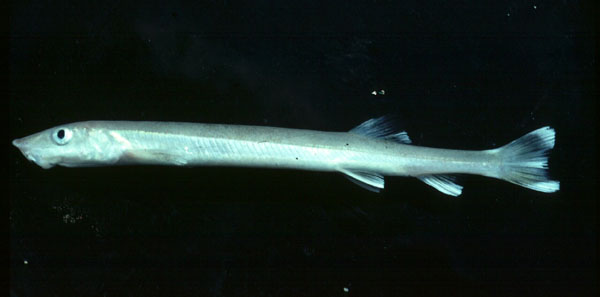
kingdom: Animalia
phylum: Chordata
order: Gonorynchiformes
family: Gonorynchidae
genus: Gonorynchus
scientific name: Gonorynchus gonorynchus
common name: Beaked salmon
